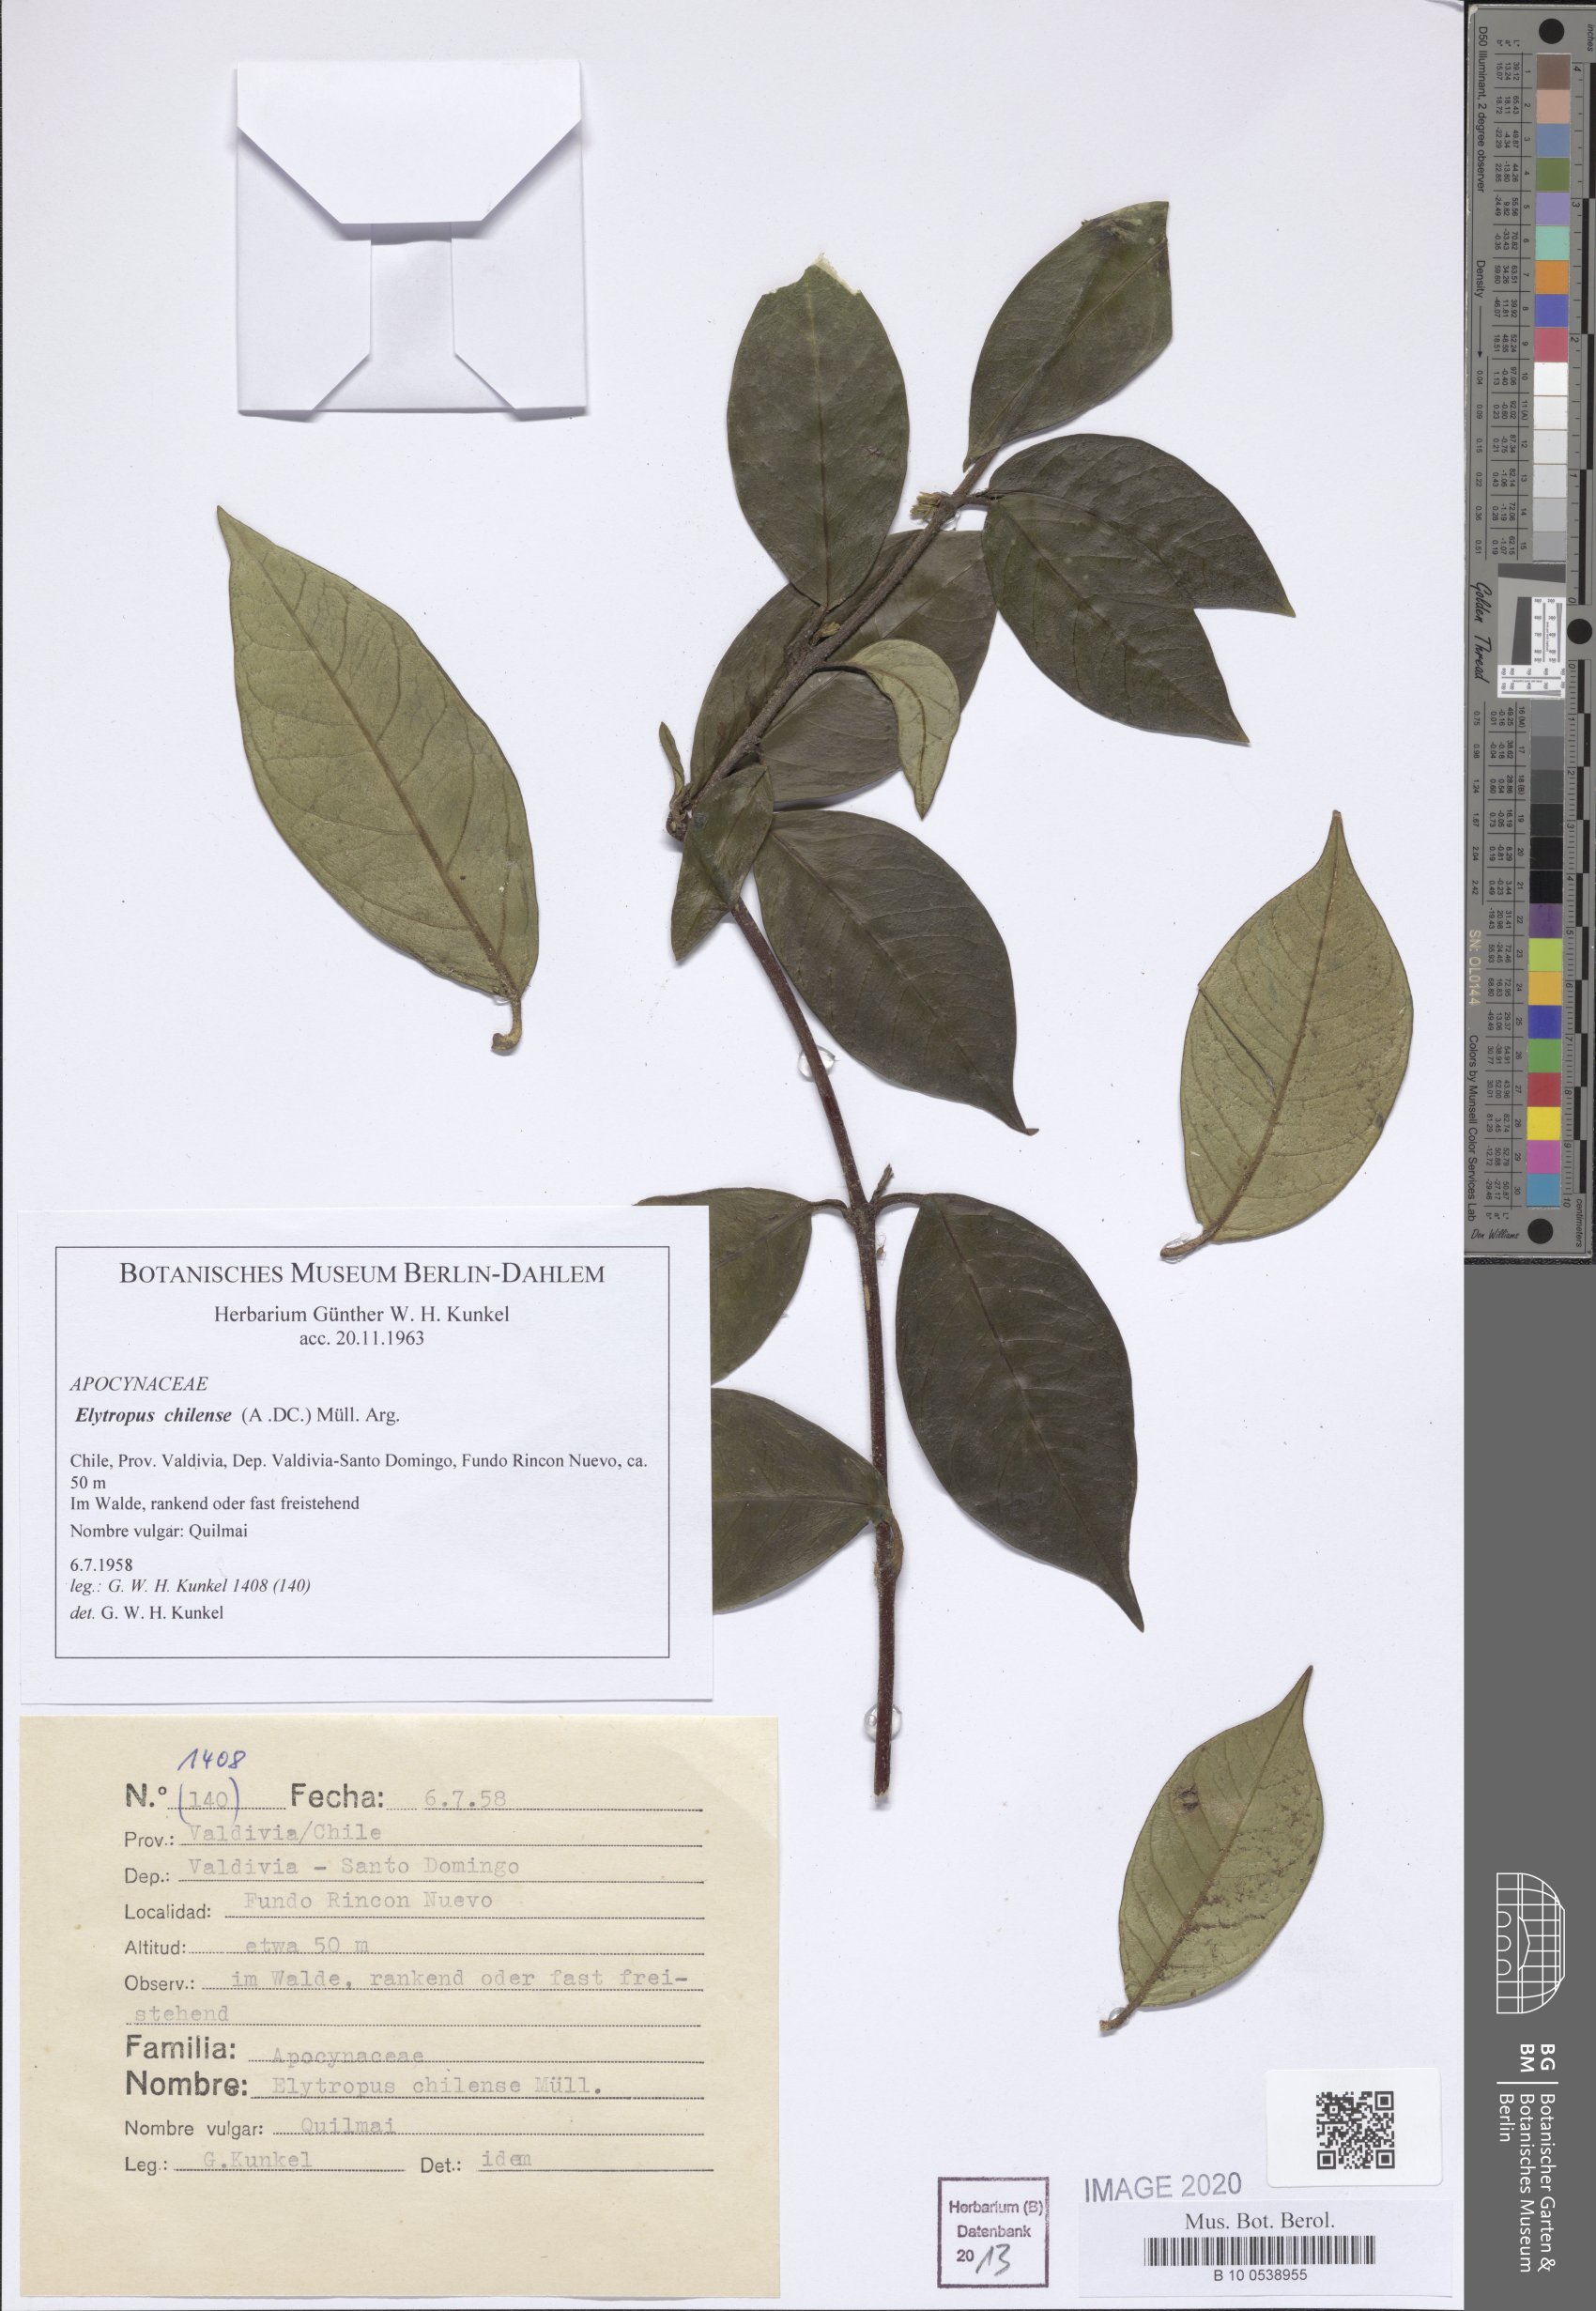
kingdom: Plantae
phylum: Tracheophyta
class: Magnoliopsida
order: Gentianales
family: Apocynaceae
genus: Mandevilla
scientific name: Mandevilla pubescens
